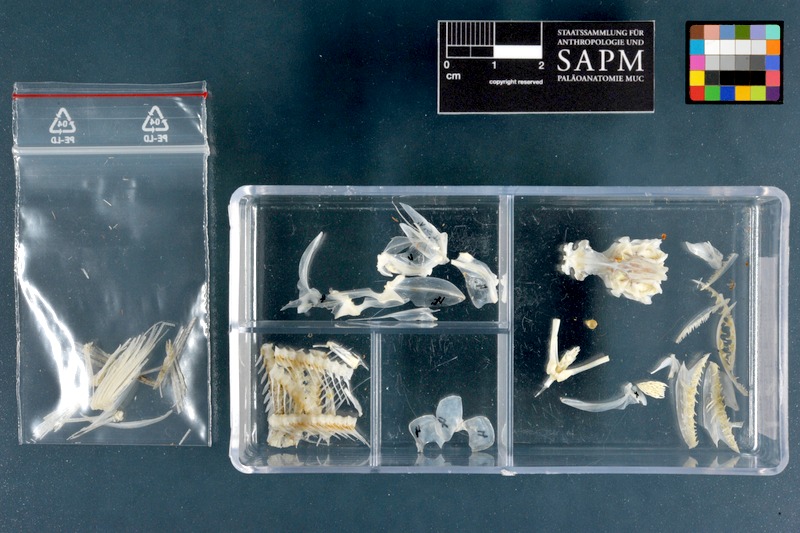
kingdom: Animalia
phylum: Chordata
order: Aulopiformes
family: Synodontidae
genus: Synodus
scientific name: Synodus variegatus
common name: Variegated lizardfish
